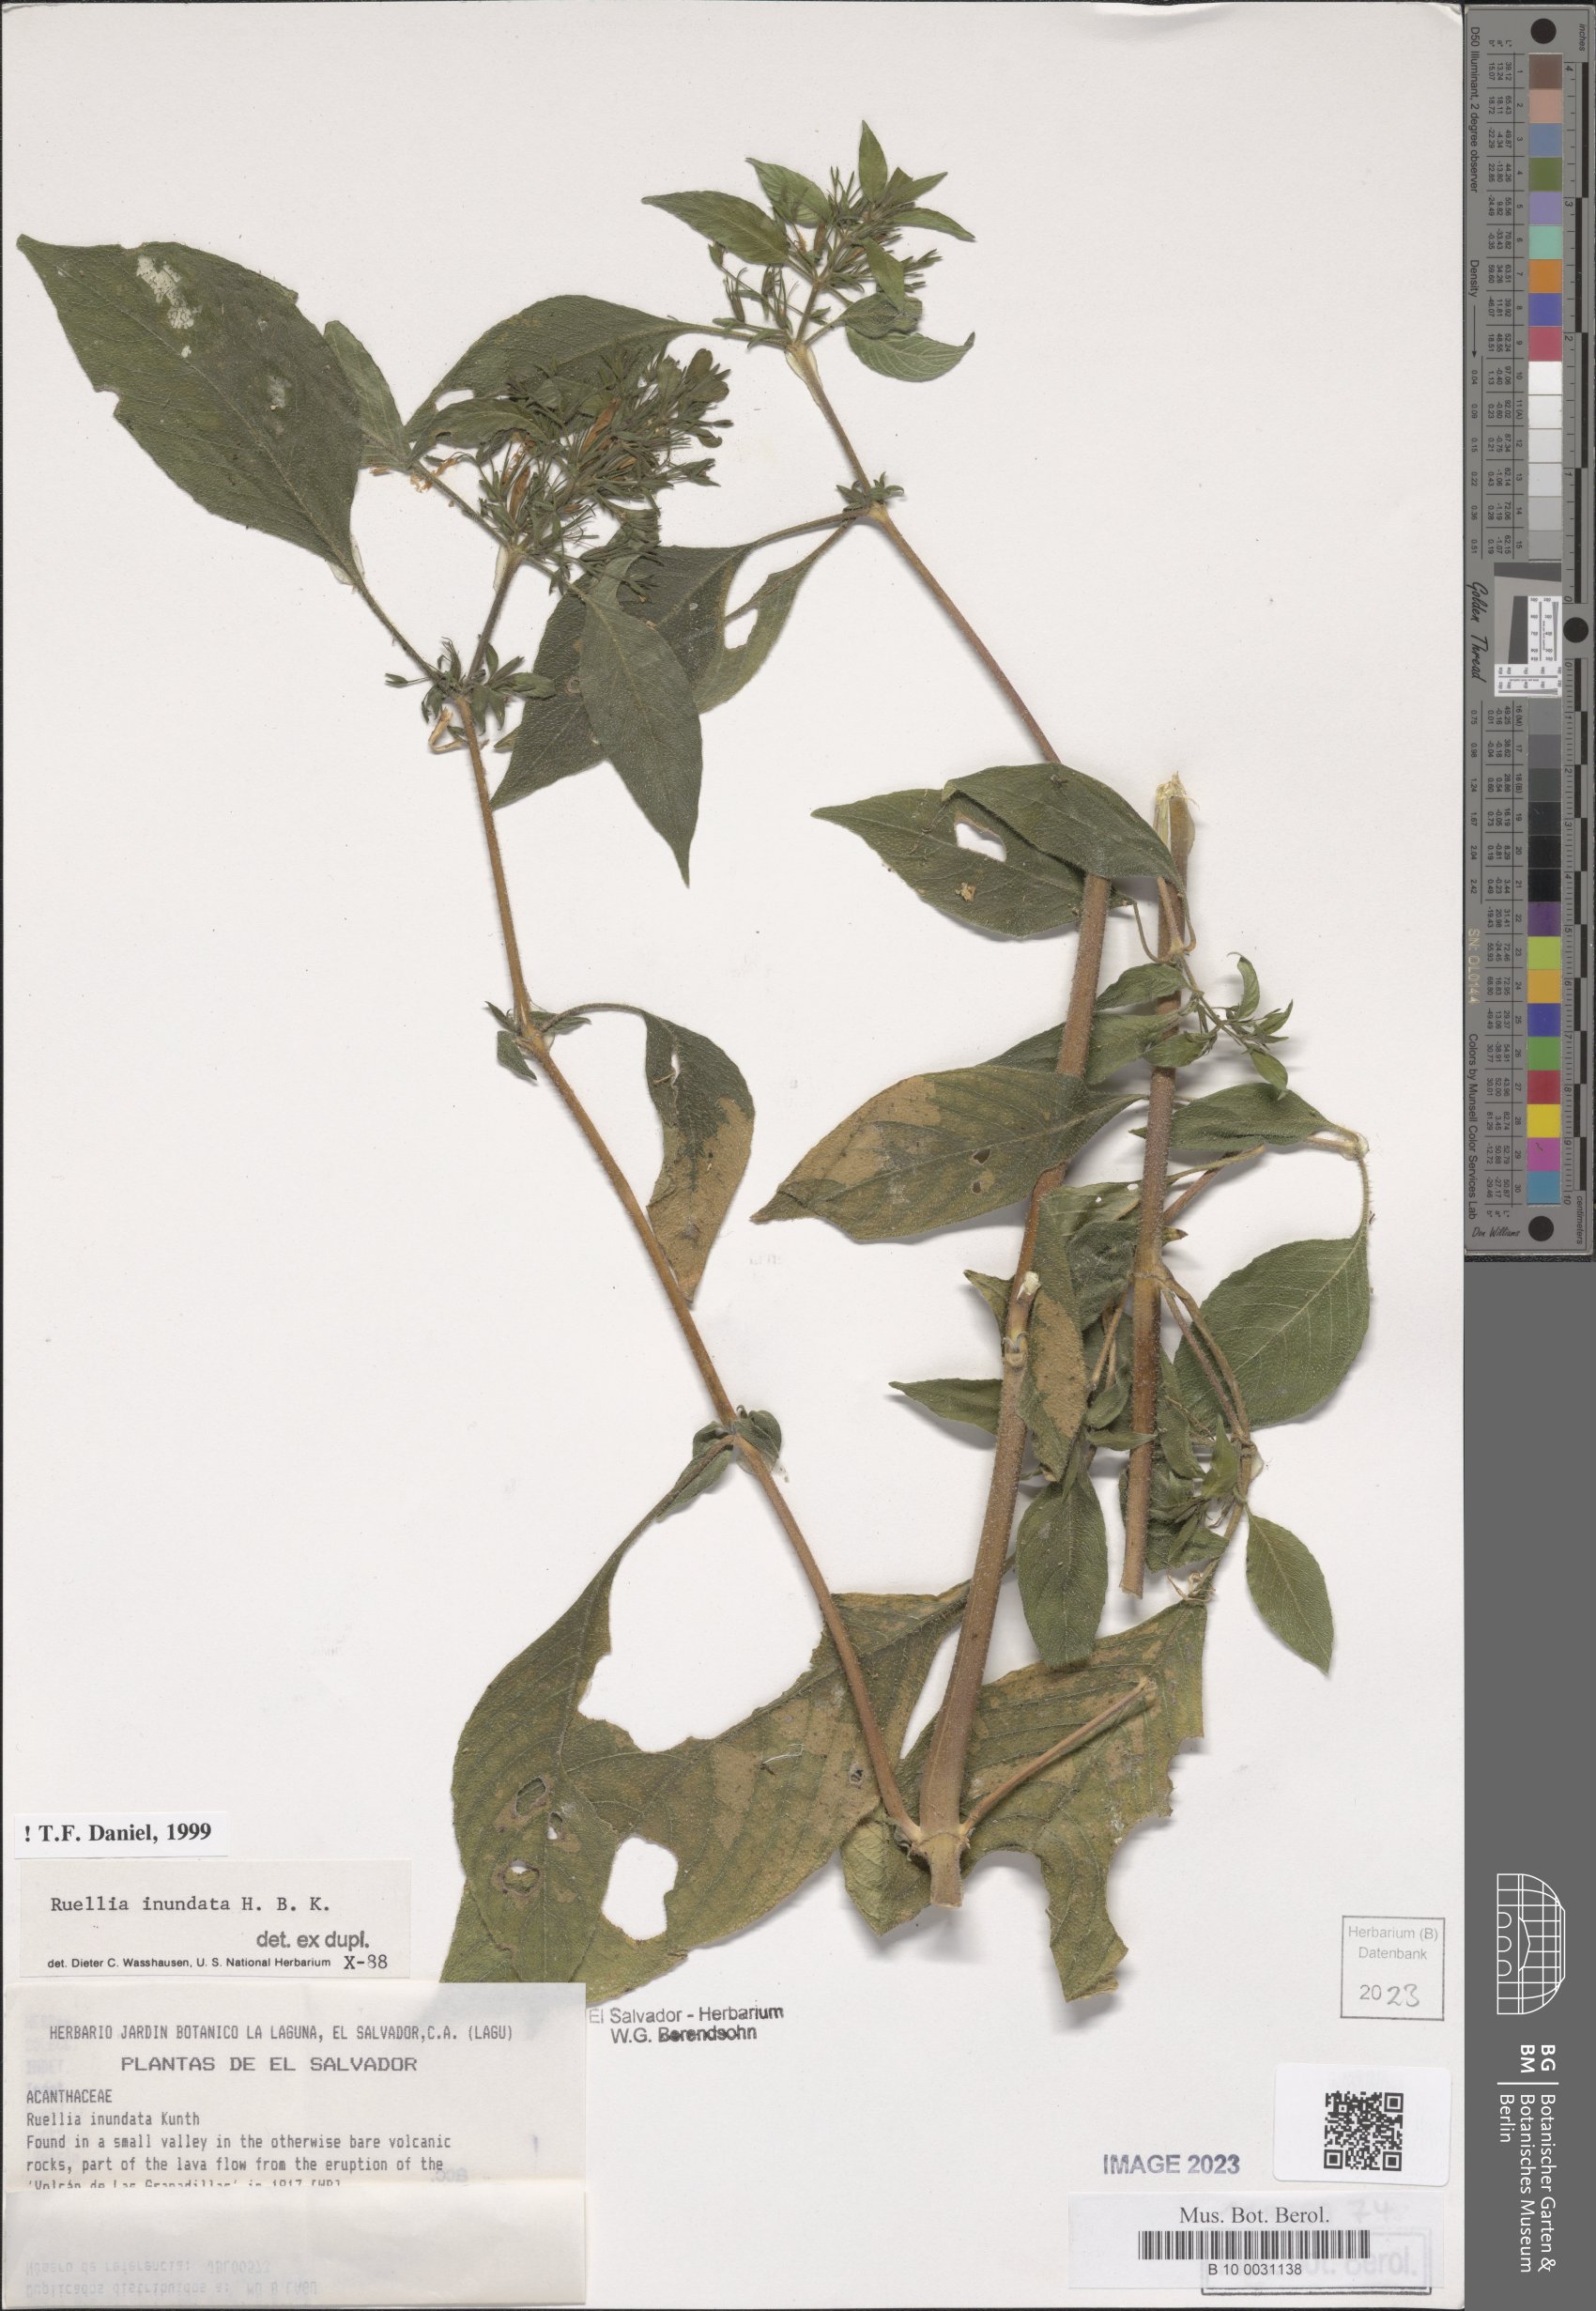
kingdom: Plantae
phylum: Tracheophyta
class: Magnoliopsida
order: Lamiales
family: Acanthaceae
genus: Ruellia
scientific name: Ruellia inundata
